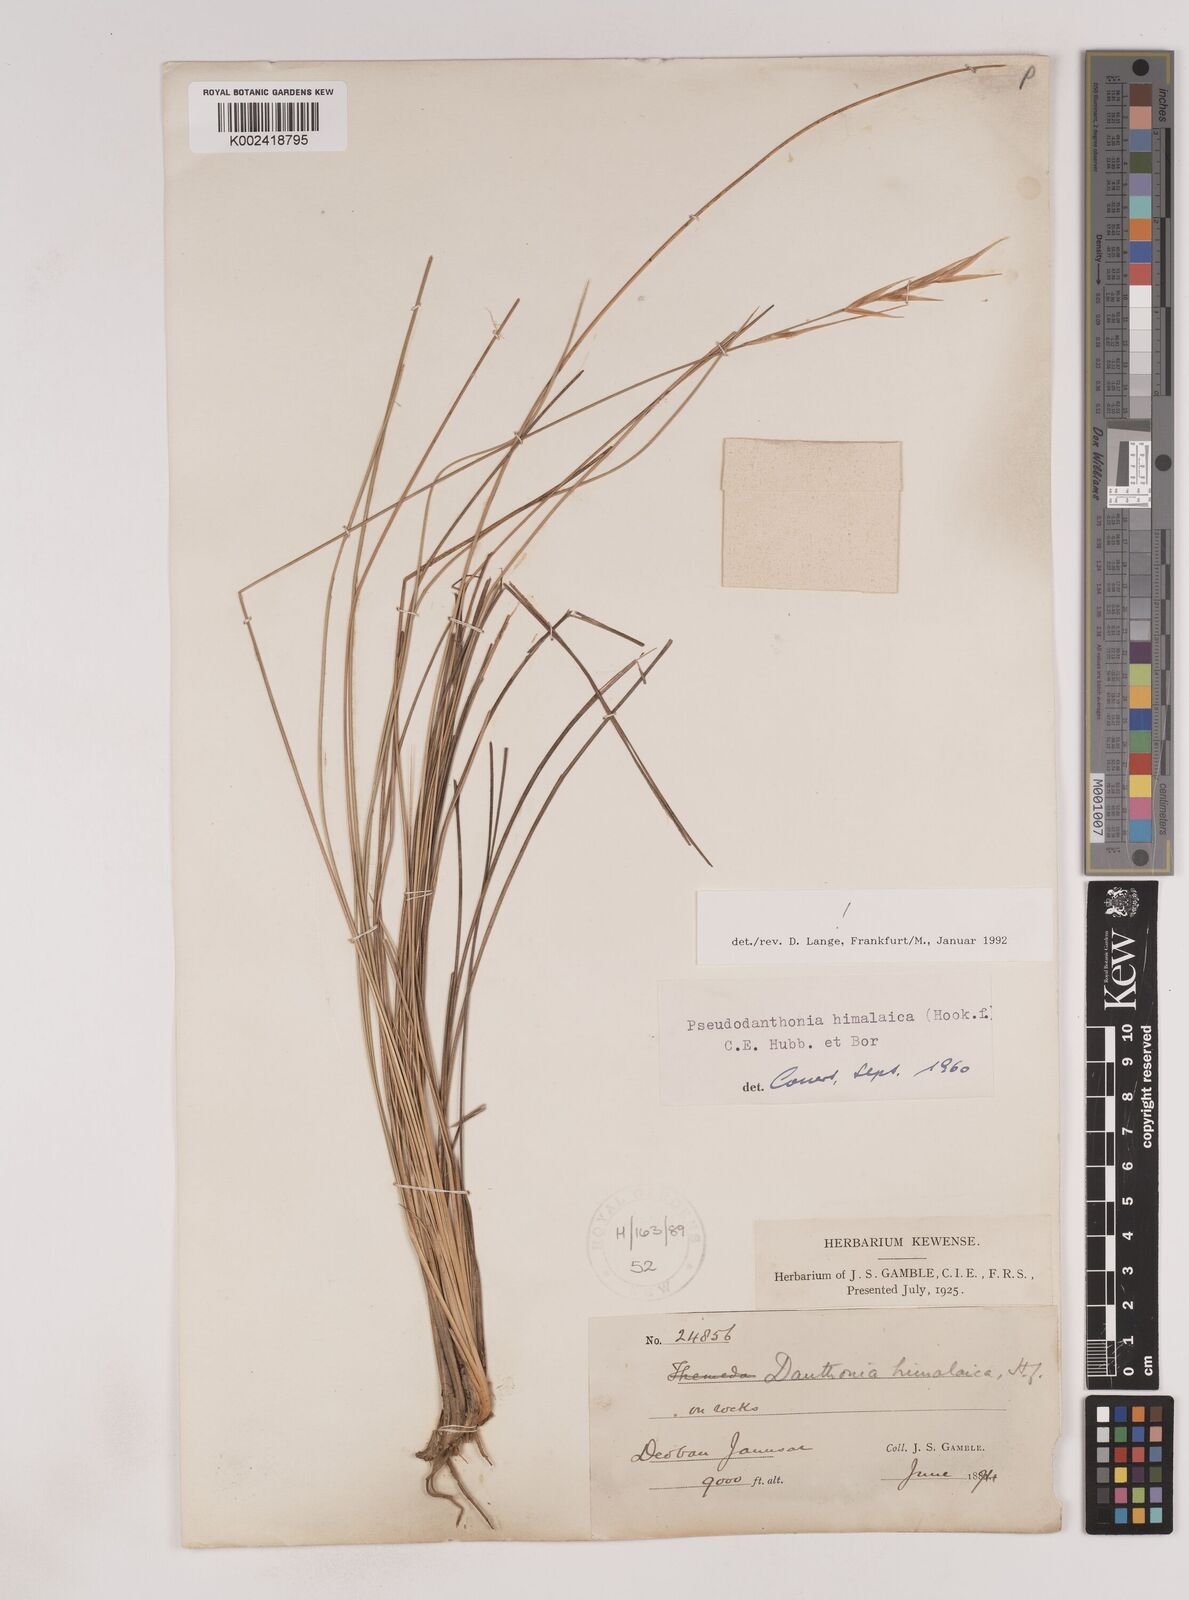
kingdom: Plantae
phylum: Tracheophyta
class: Liliopsida
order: Poales
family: Poaceae
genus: Pseudodanthonia
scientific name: Pseudodanthonia himalaica
